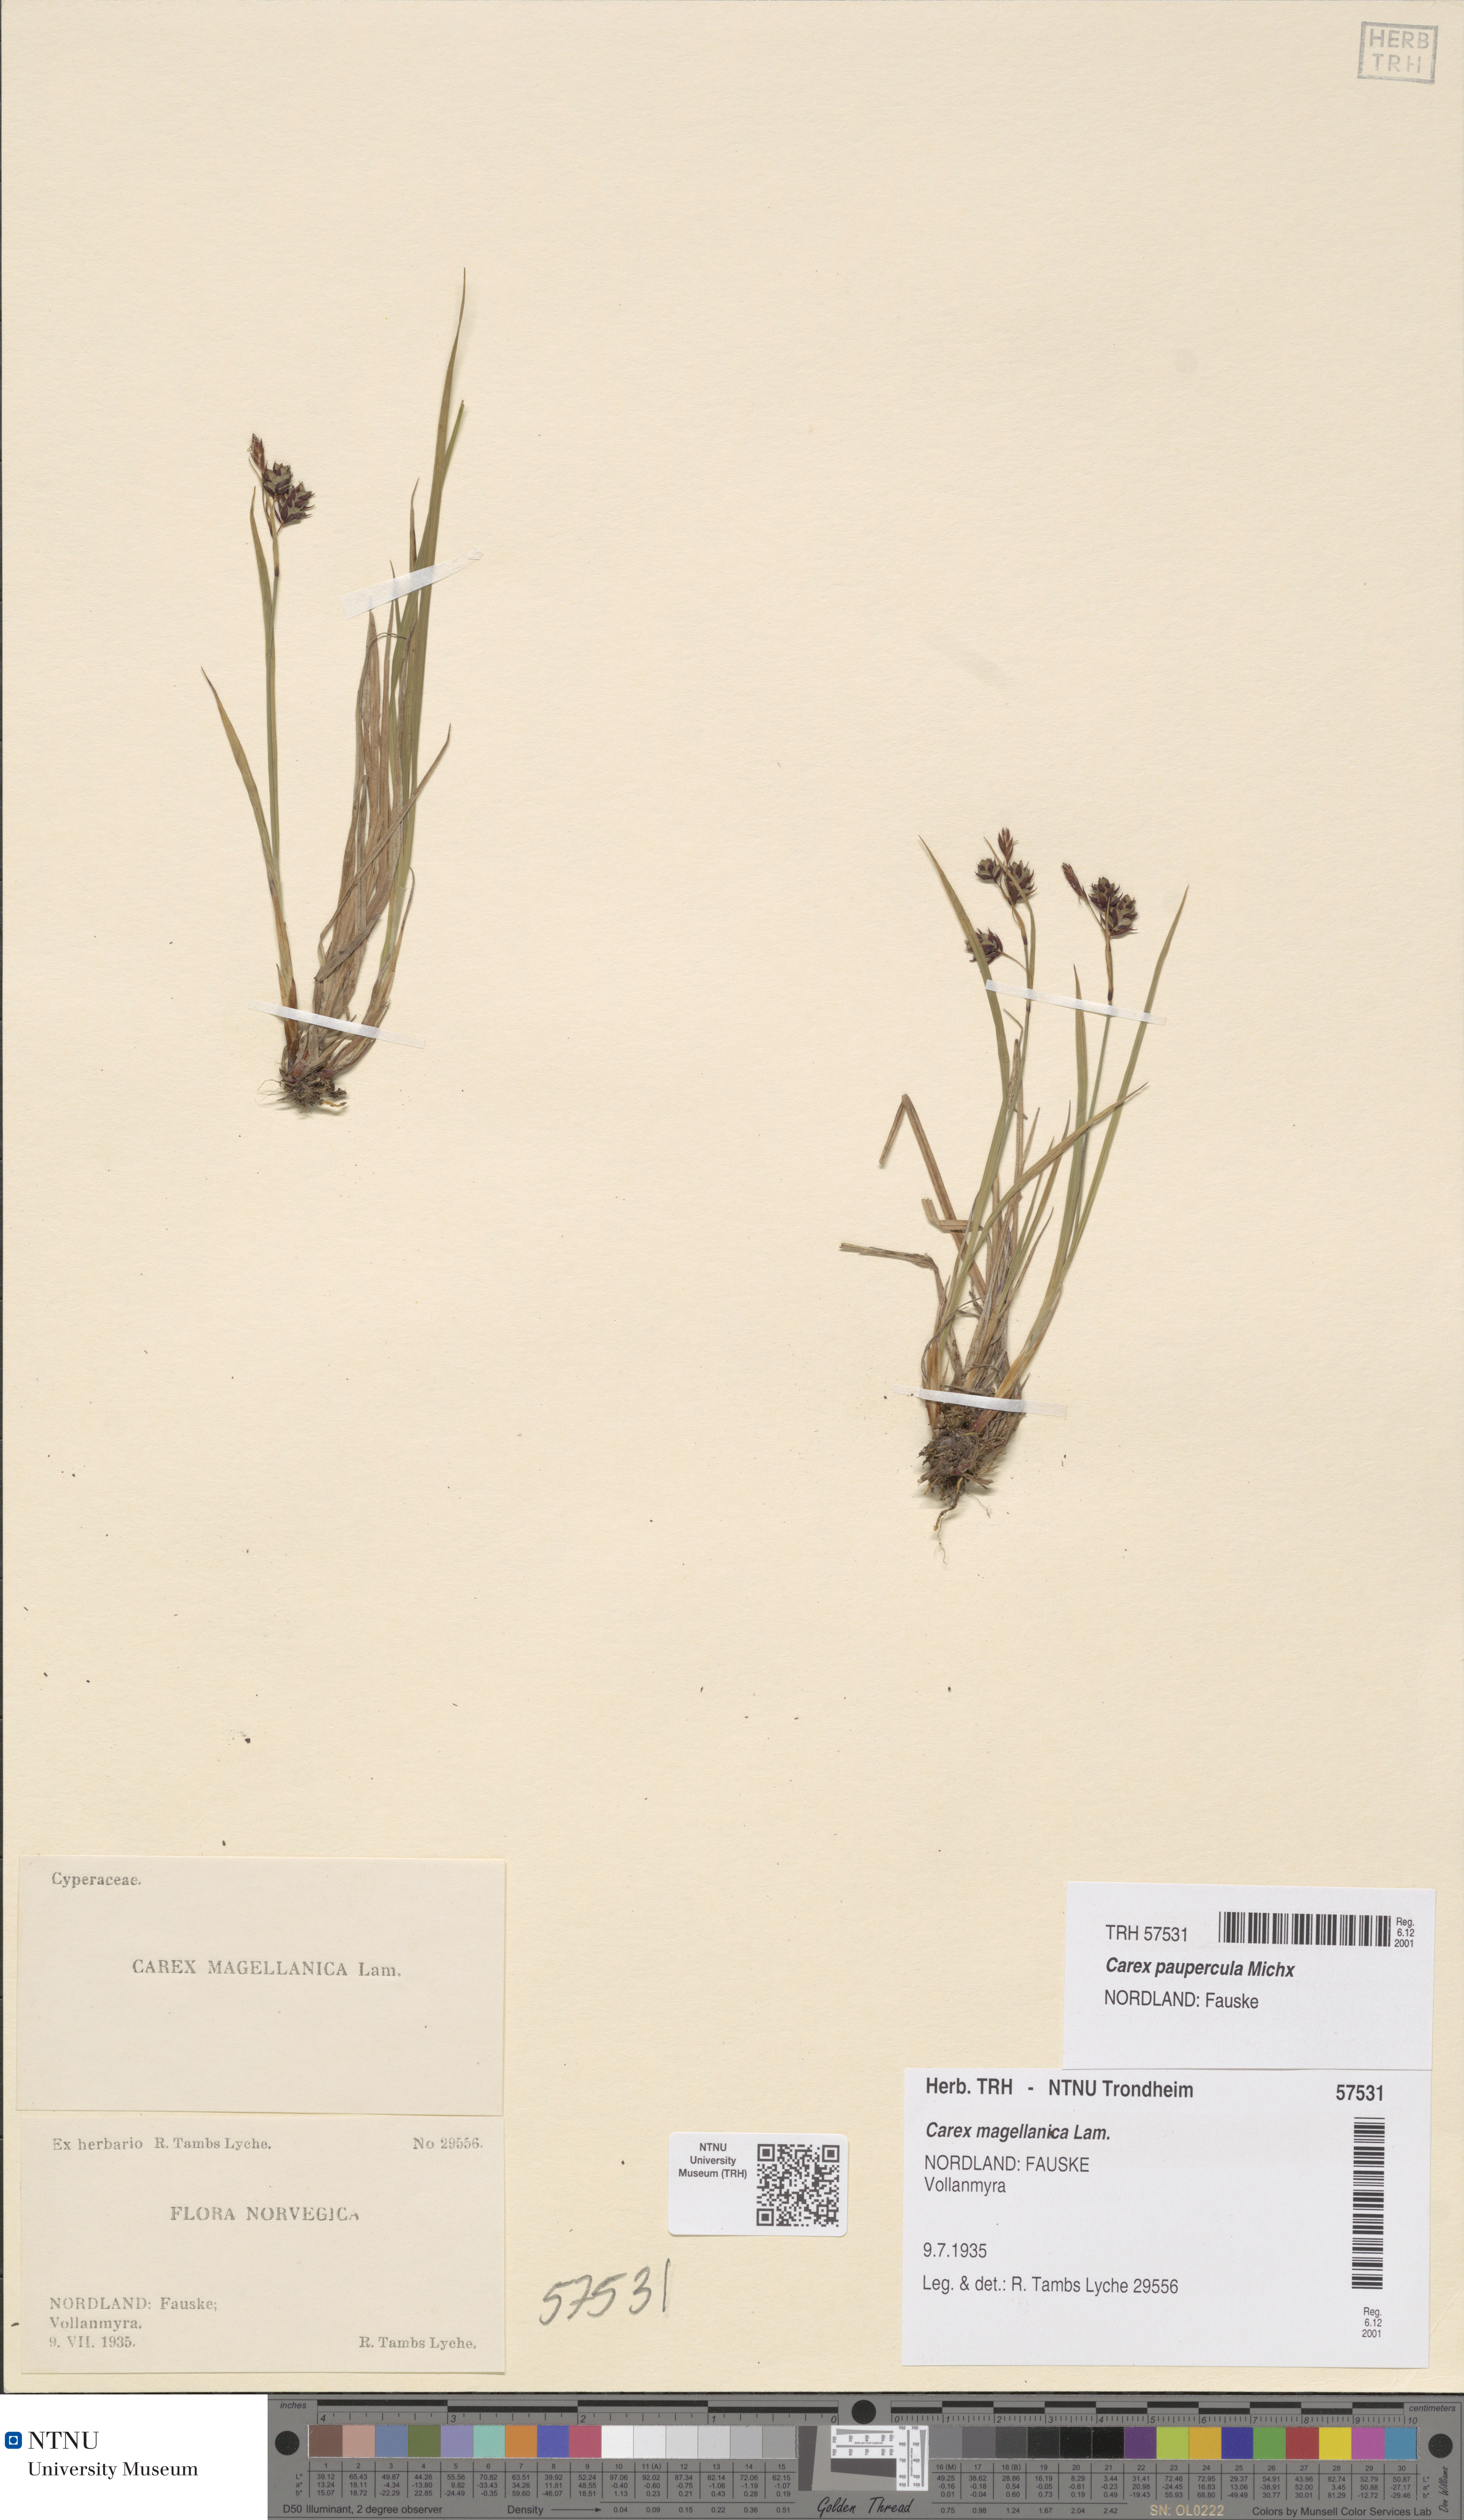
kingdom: Plantae
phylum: Tracheophyta
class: Liliopsida
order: Poales
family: Cyperaceae
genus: Carex
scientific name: Carex magellanica
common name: Bog sedge
